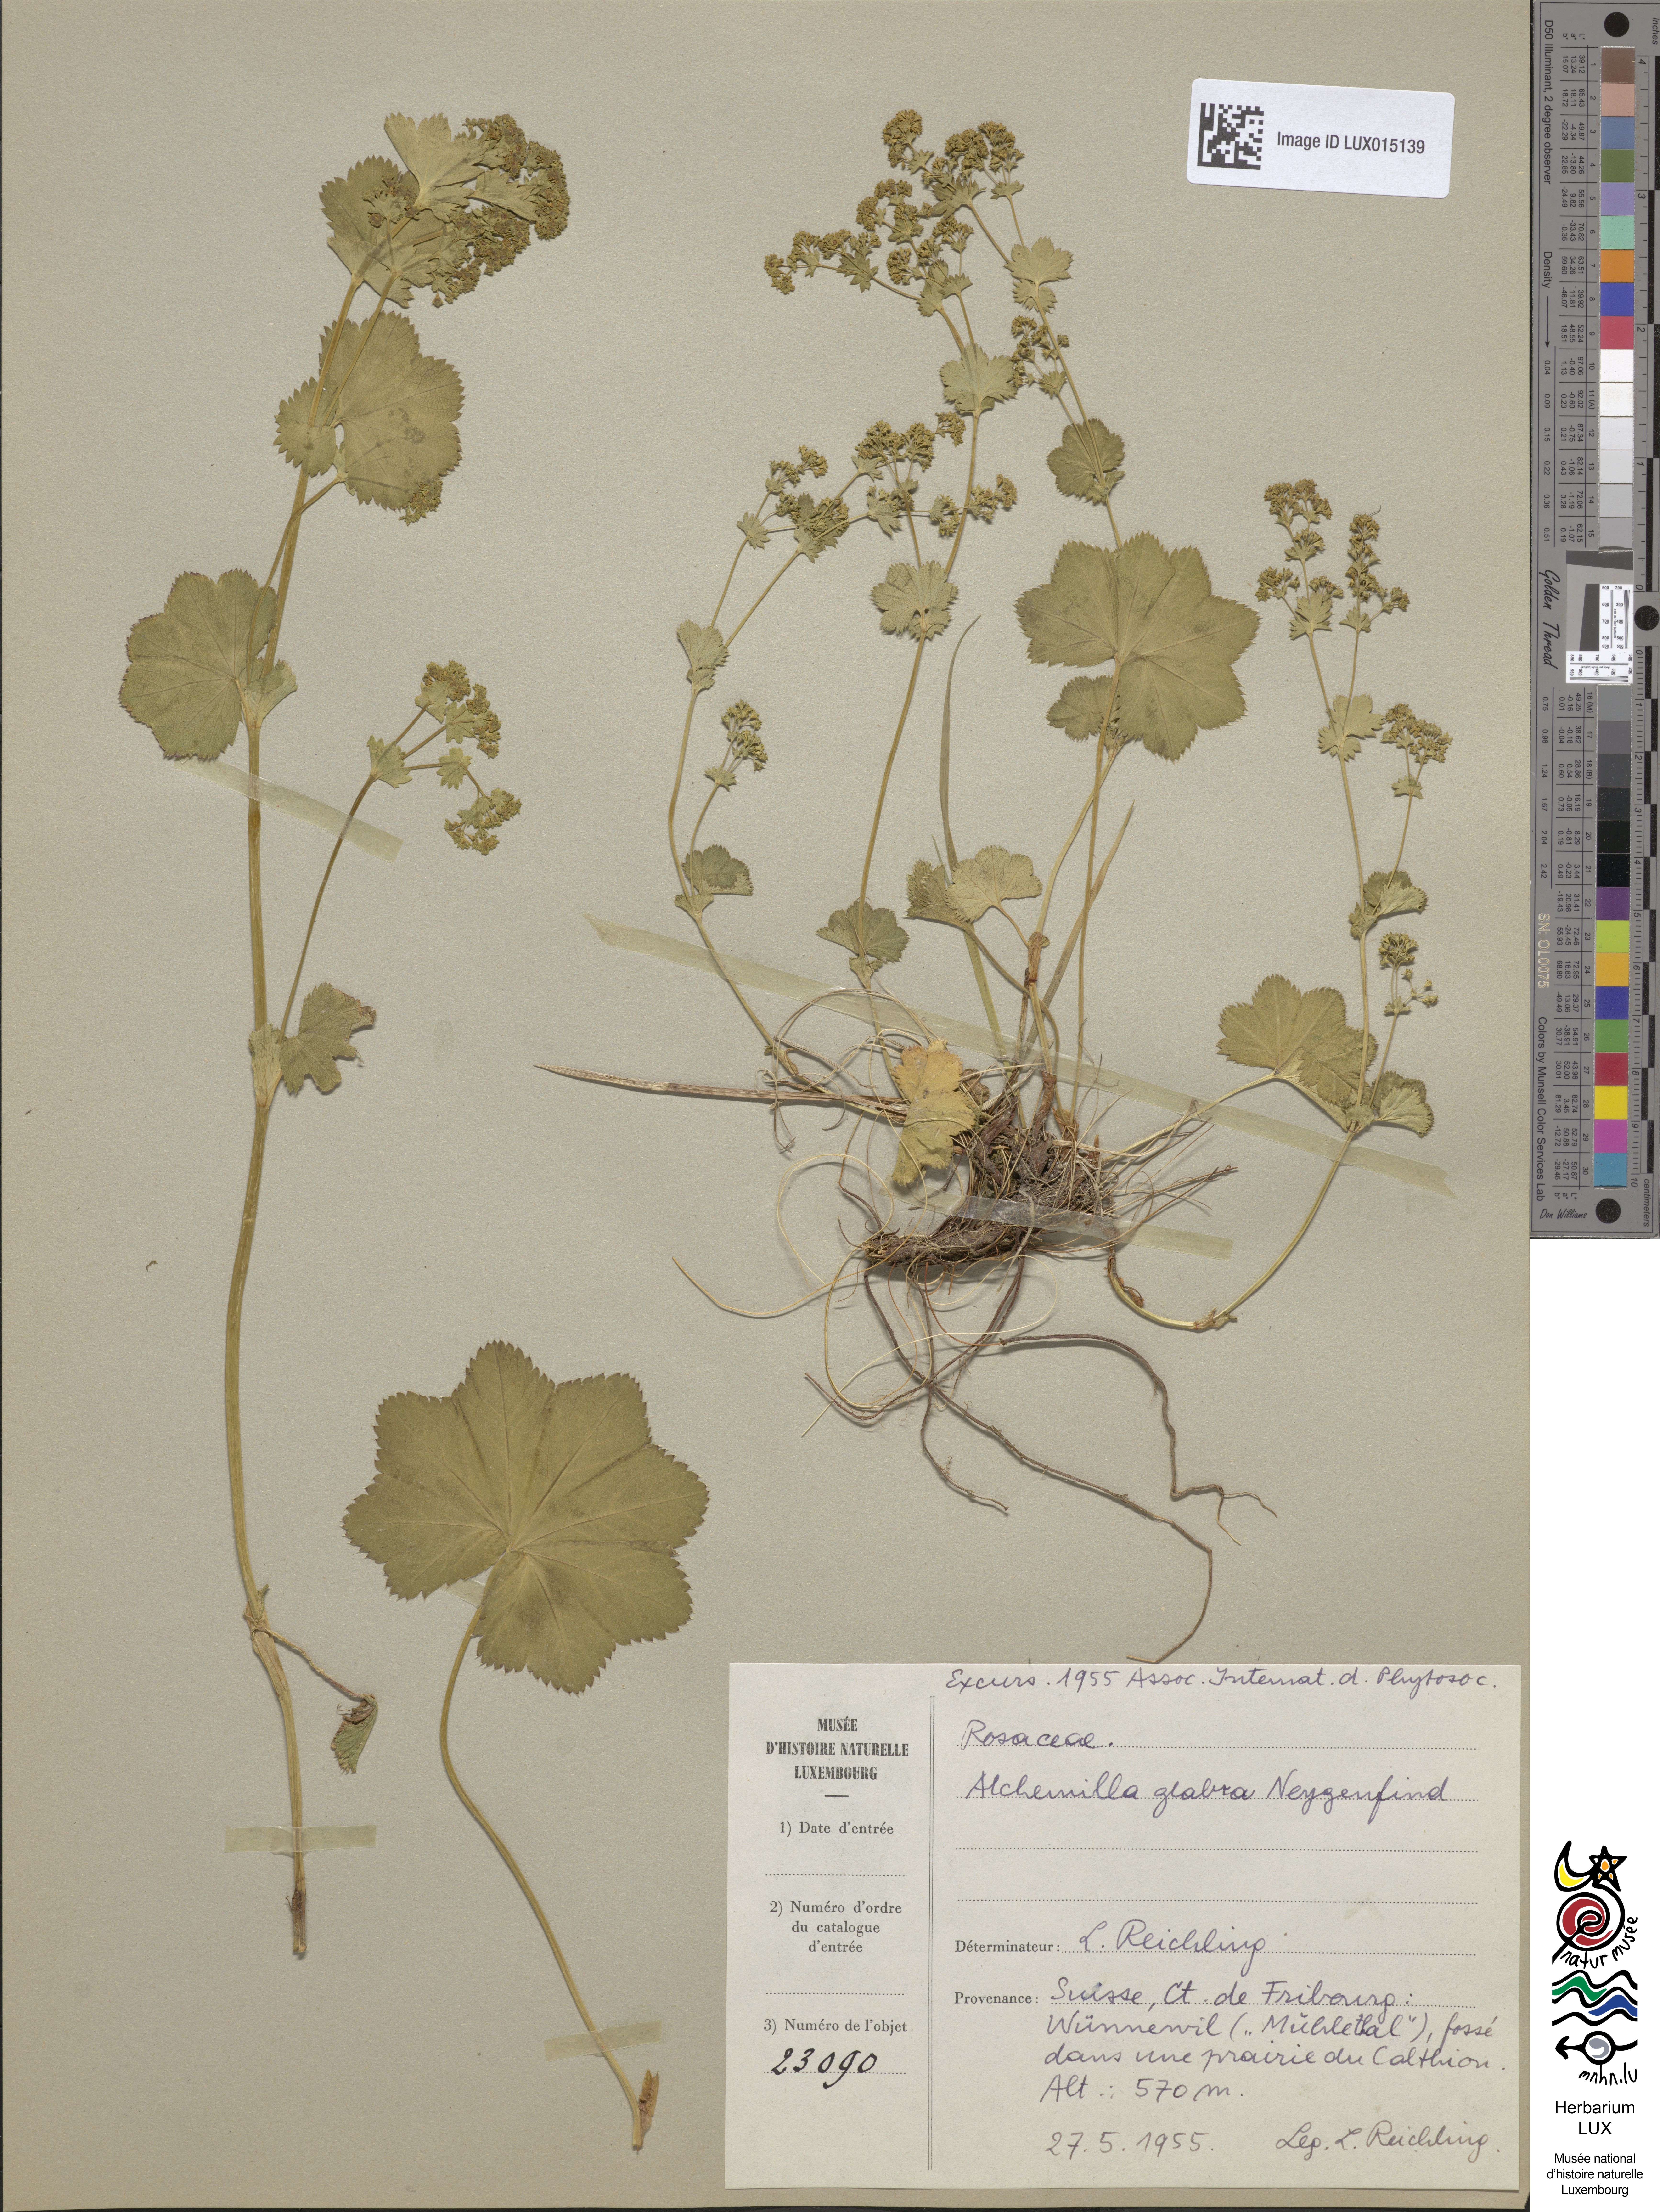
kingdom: Plantae
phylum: Tracheophyta
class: Magnoliopsida
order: Rosales
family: Rosaceae
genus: Alchemilla
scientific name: Alchemilla glabra
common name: Smooth lady's-mantle
